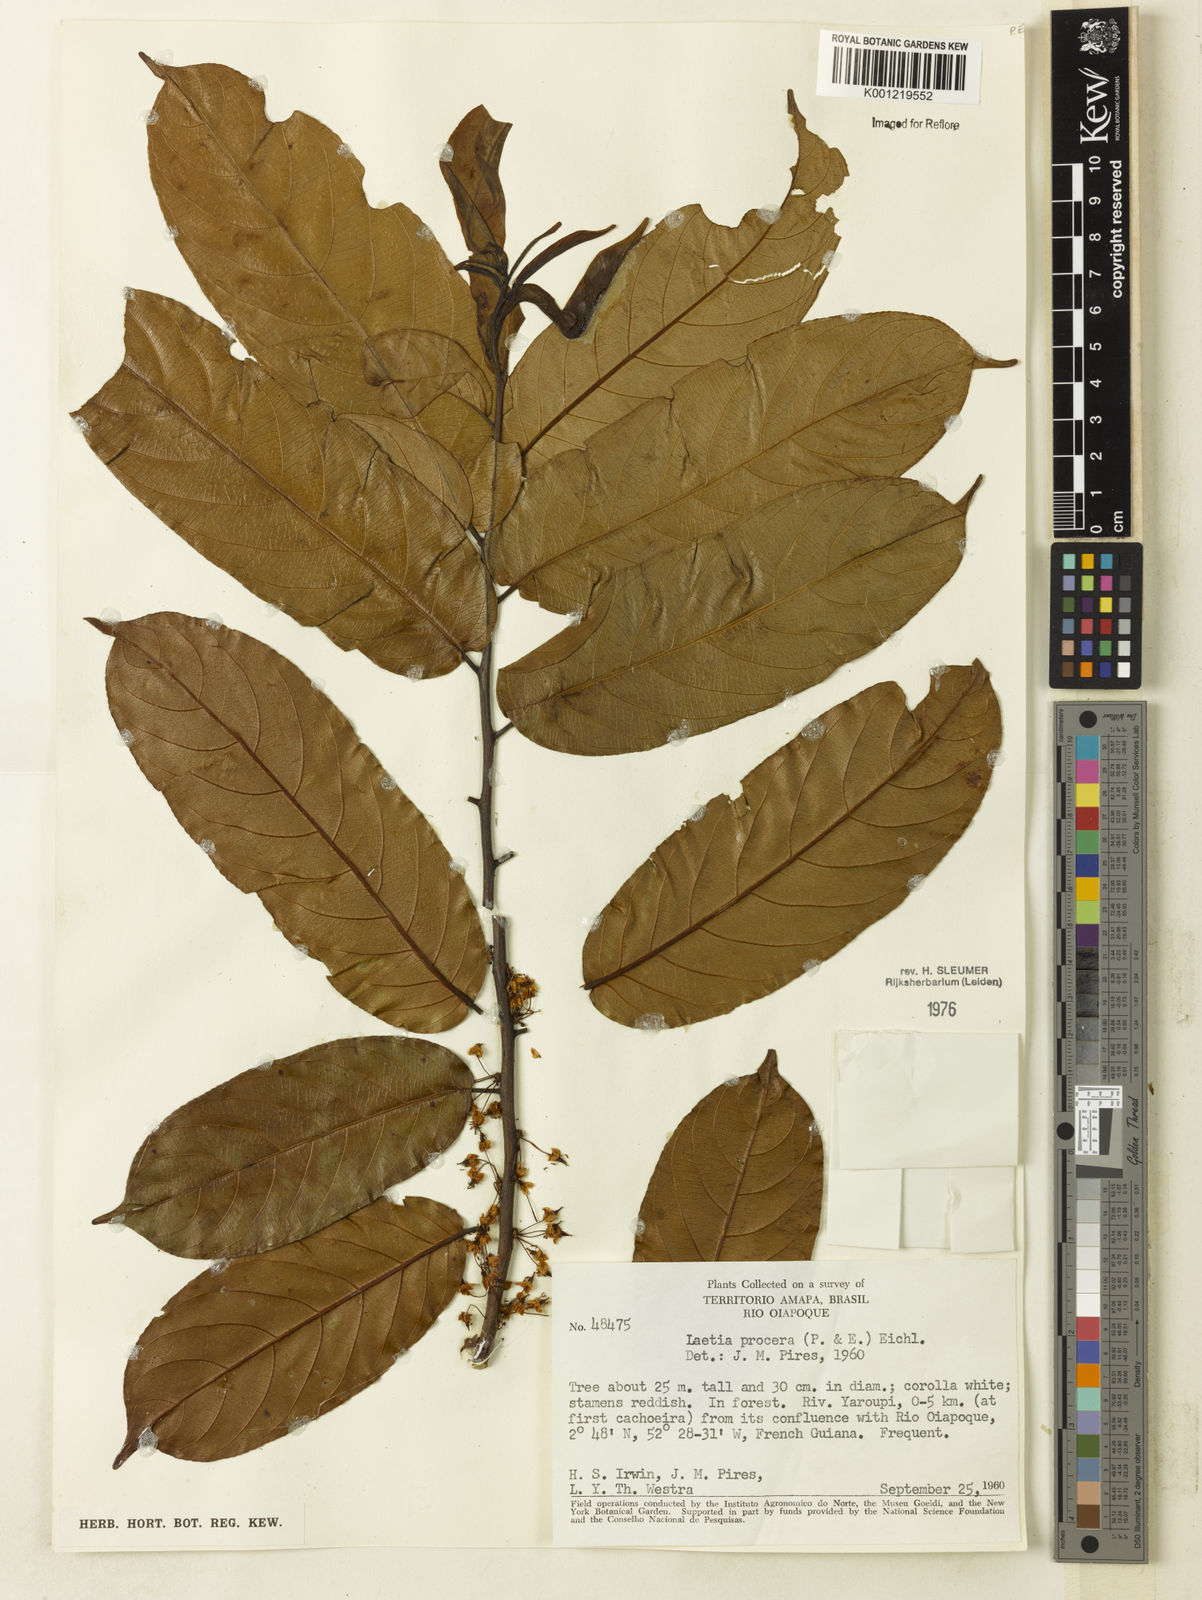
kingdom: Plantae
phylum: Tracheophyta
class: Magnoliopsida
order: Malpighiales
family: Salicaceae
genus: Casearia
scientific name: Casearia bicolor
